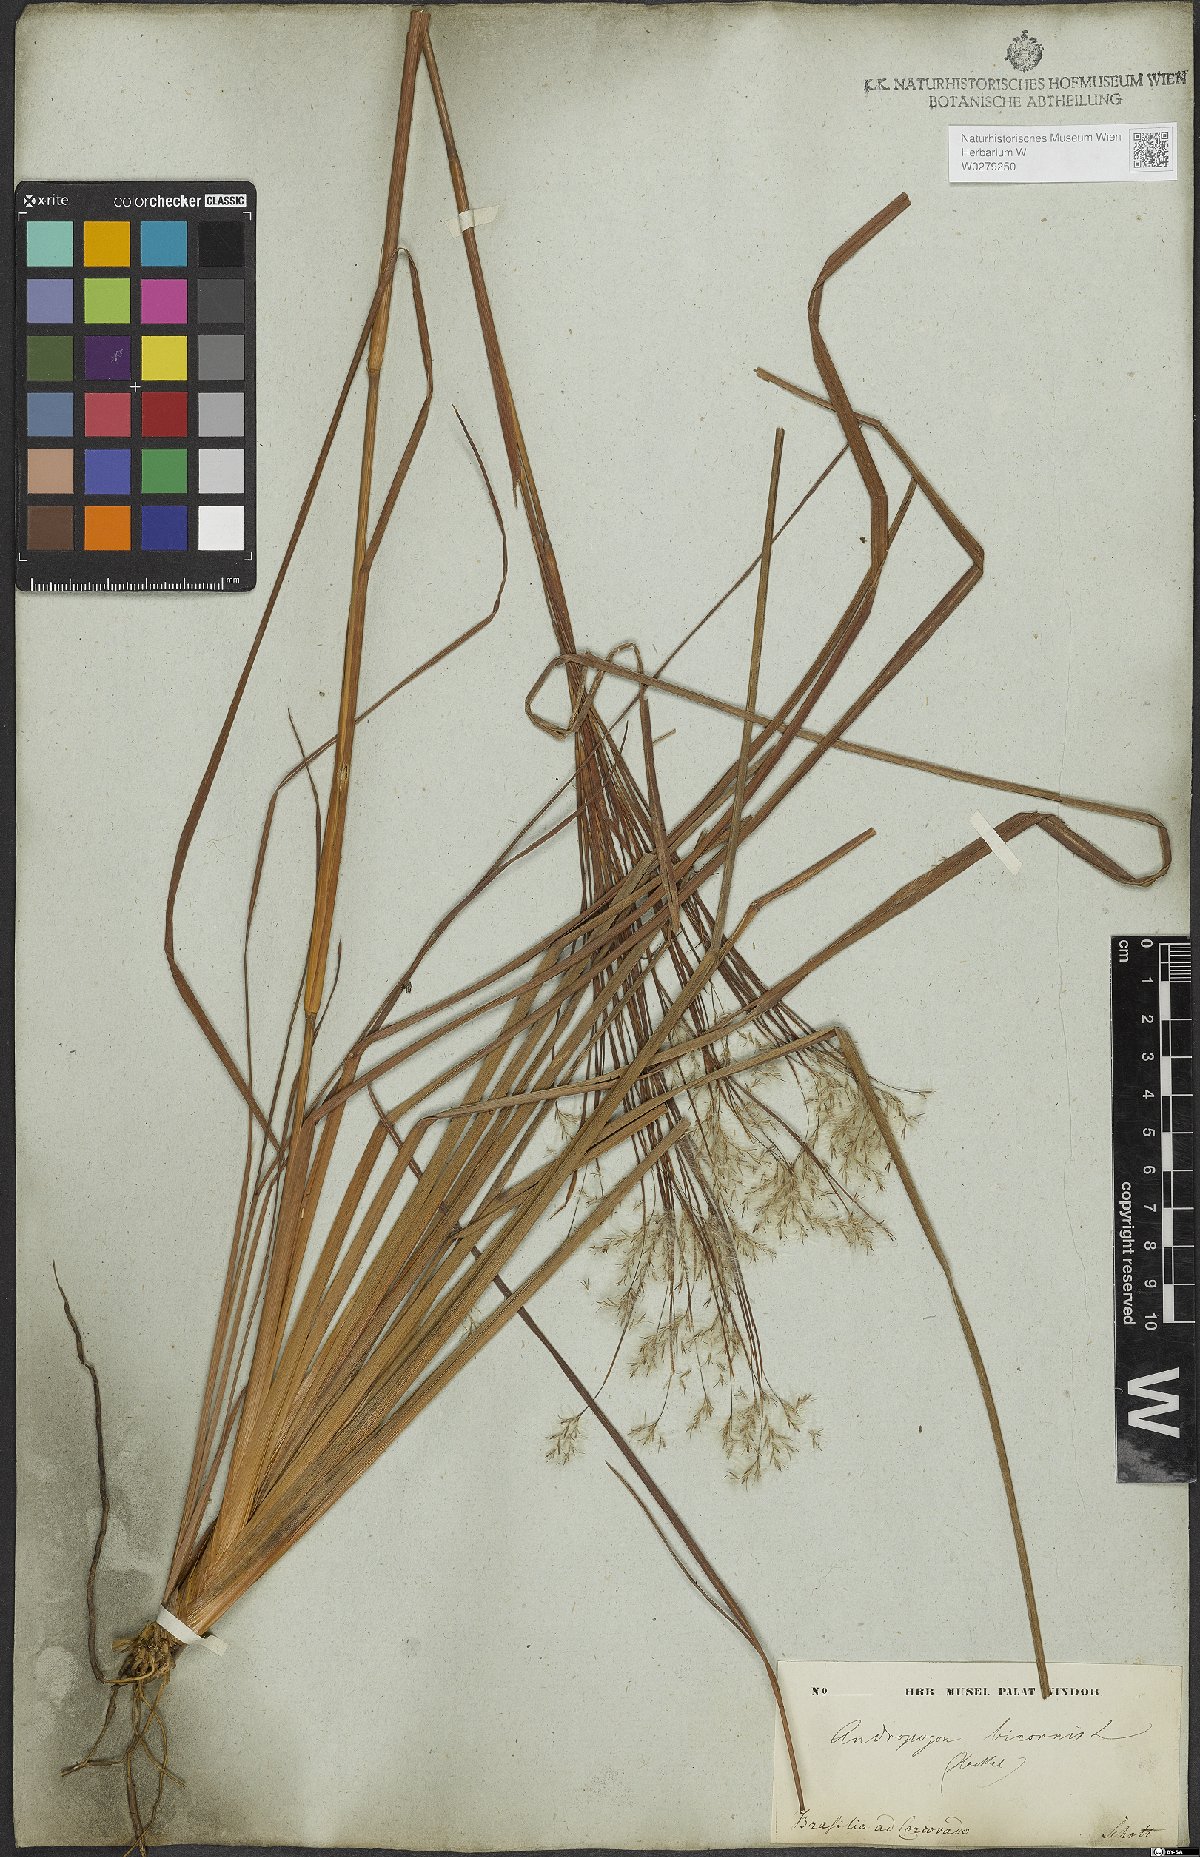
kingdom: Plantae
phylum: Tracheophyta
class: Liliopsida
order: Poales
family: Poaceae
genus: Andropogon
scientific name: Andropogon bicornis
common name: West indian foxtail grass
